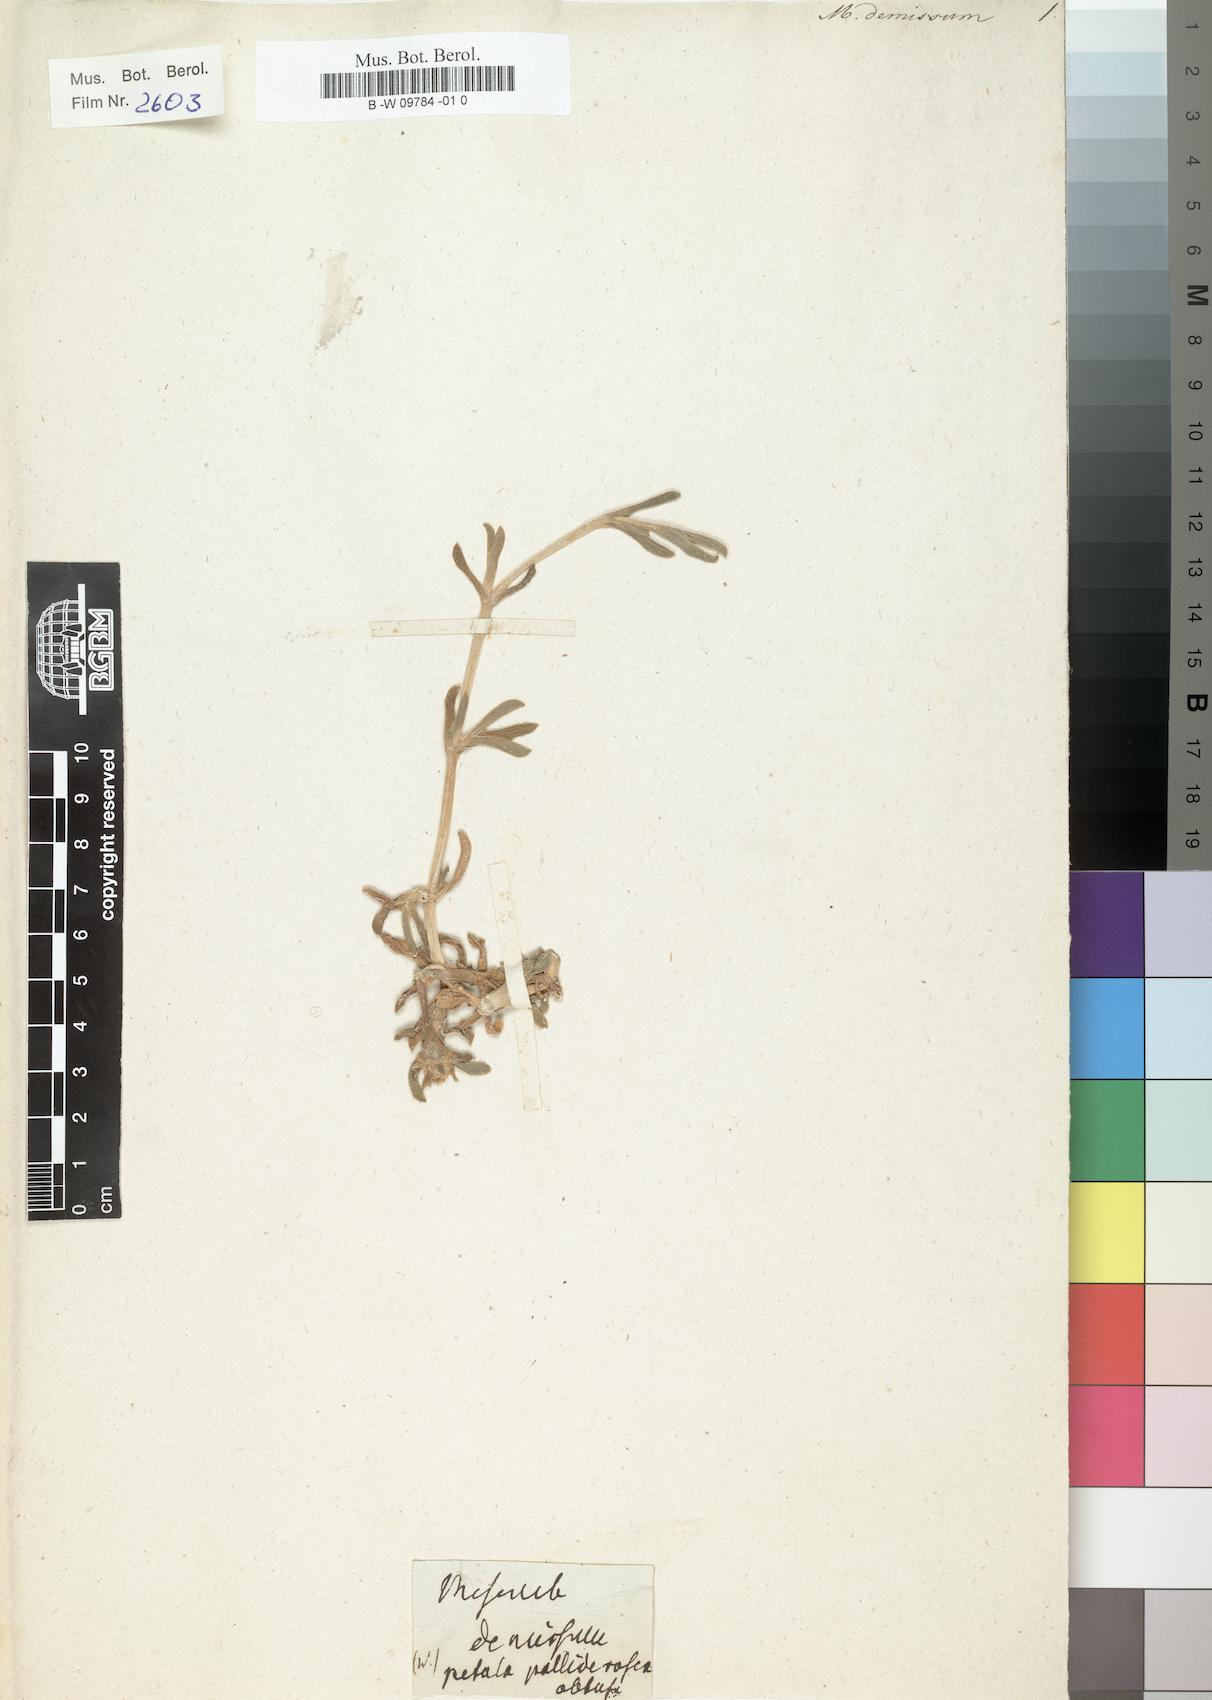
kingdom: Plantae
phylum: Tracheophyta
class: Magnoliopsida
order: Caryophyllales
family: Aizoaceae
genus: Disphyma
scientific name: Disphyma australe
